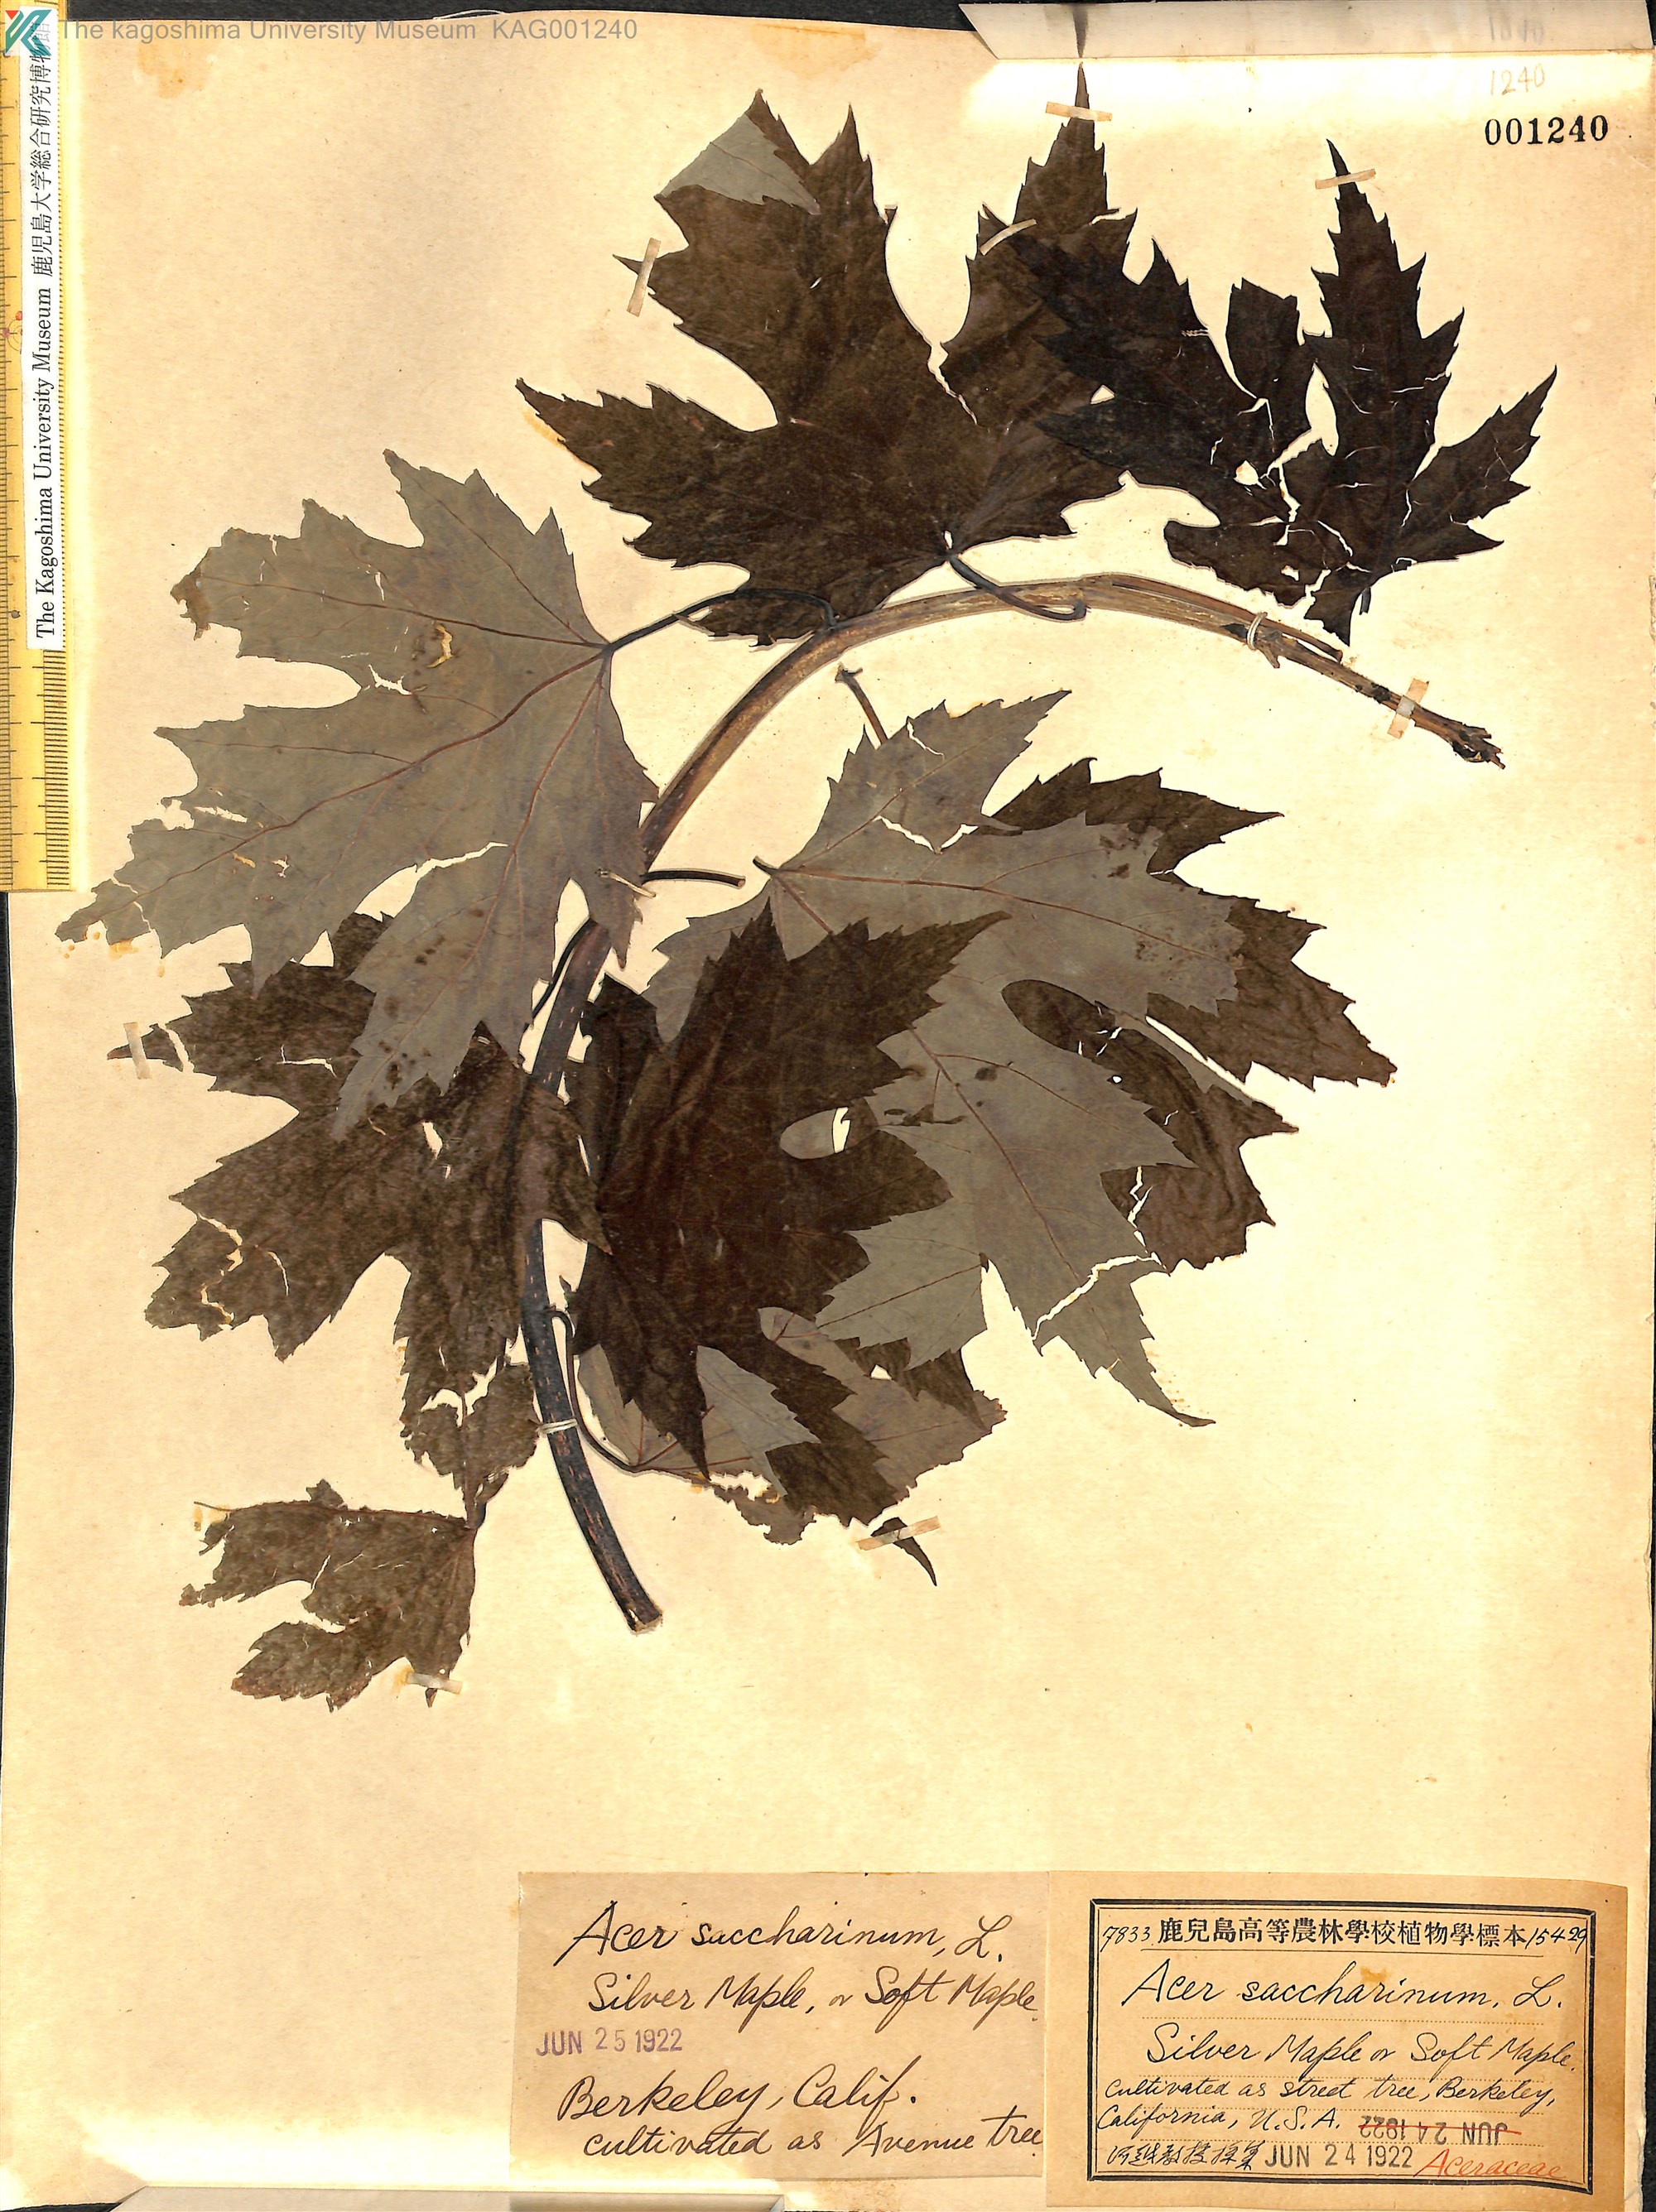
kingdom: Plantae
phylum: Tracheophyta
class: Magnoliopsida
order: Sapindales
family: Sapindaceae
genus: Acer
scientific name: Acer saccharinum
